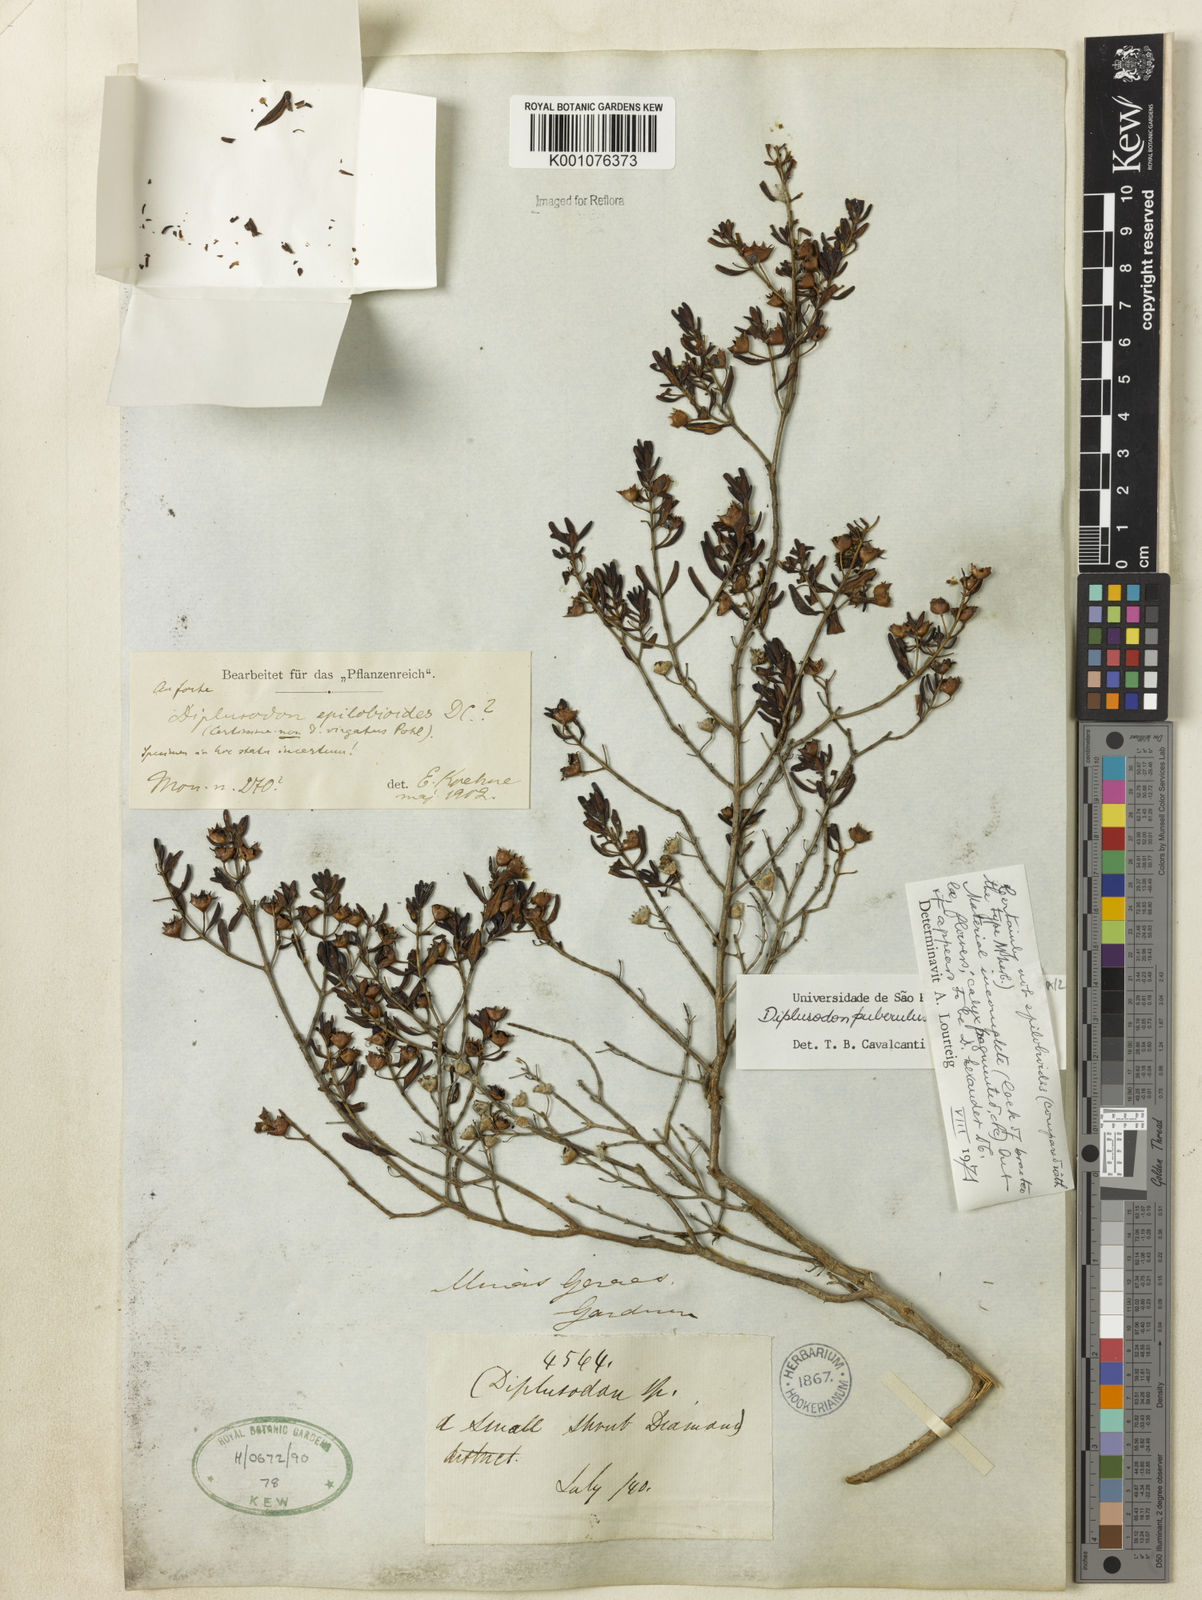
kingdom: Plantae
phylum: Tracheophyta
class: Magnoliopsida
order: Myrtales
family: Lythraceae
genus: Diplusodon
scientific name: Diplusodon puberulus
